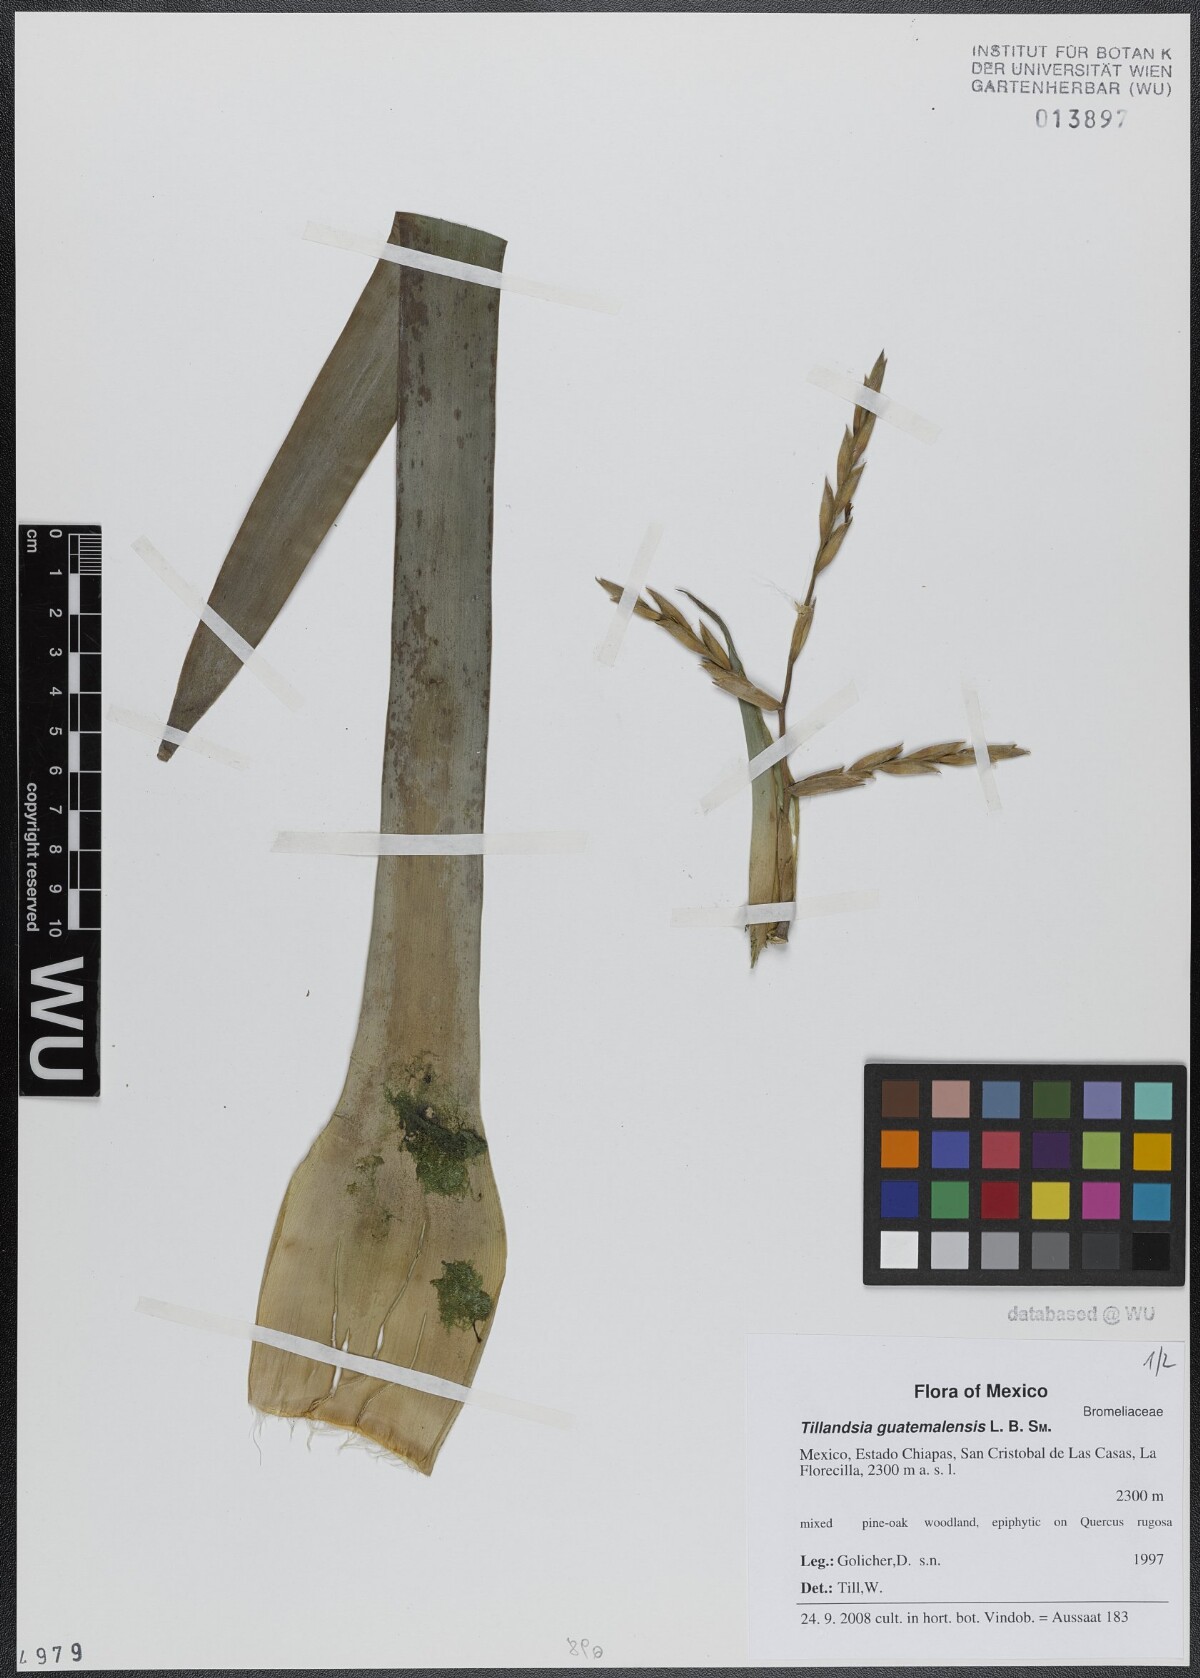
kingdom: Plantae
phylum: Tracheophyta
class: Liliopsida
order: Poales
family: Bromeliaceae
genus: Tillandsia
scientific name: Tillandsia guatemalensis
